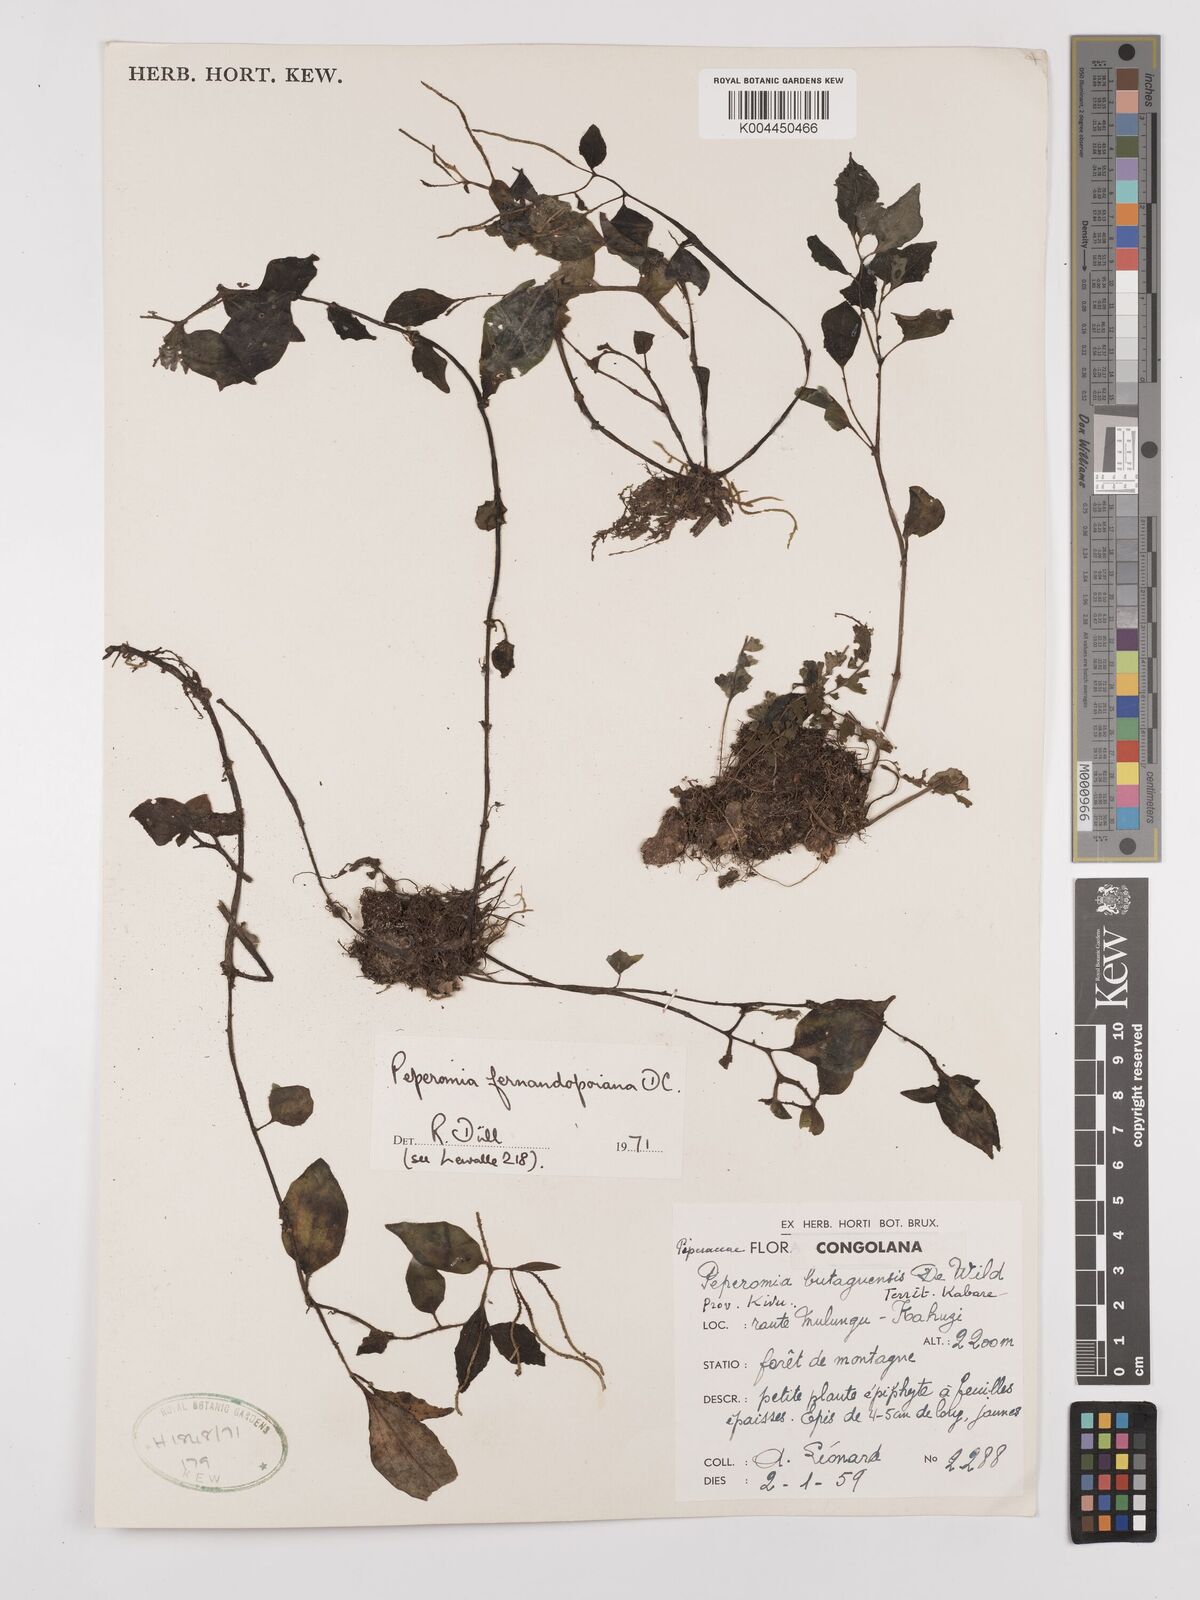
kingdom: Plantae
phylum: Tracheophyta
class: Magnoliopsida
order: Piperales
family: Piperaceae
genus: Peperomia
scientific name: Peperomia fernandopoiana
